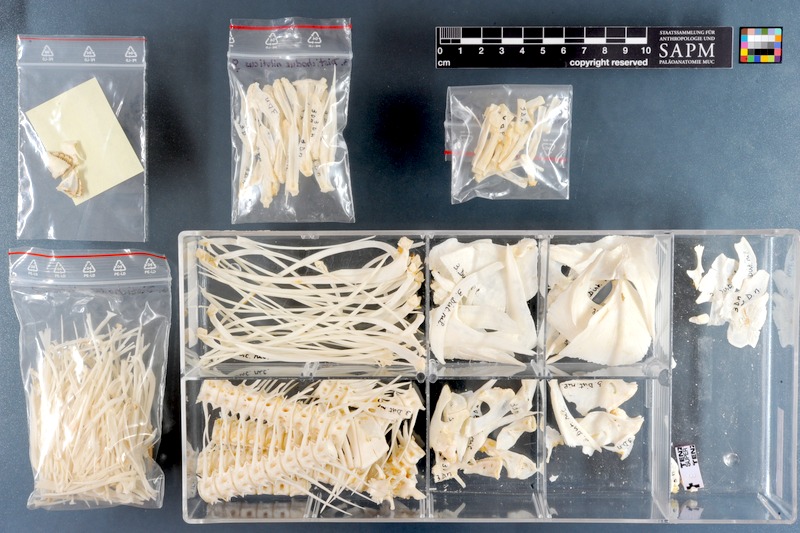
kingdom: Animalia
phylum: Chordata
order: Characiformes
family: Distichodontidae
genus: Distichodus
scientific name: Distichodus nefasch
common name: Nile distichodus
